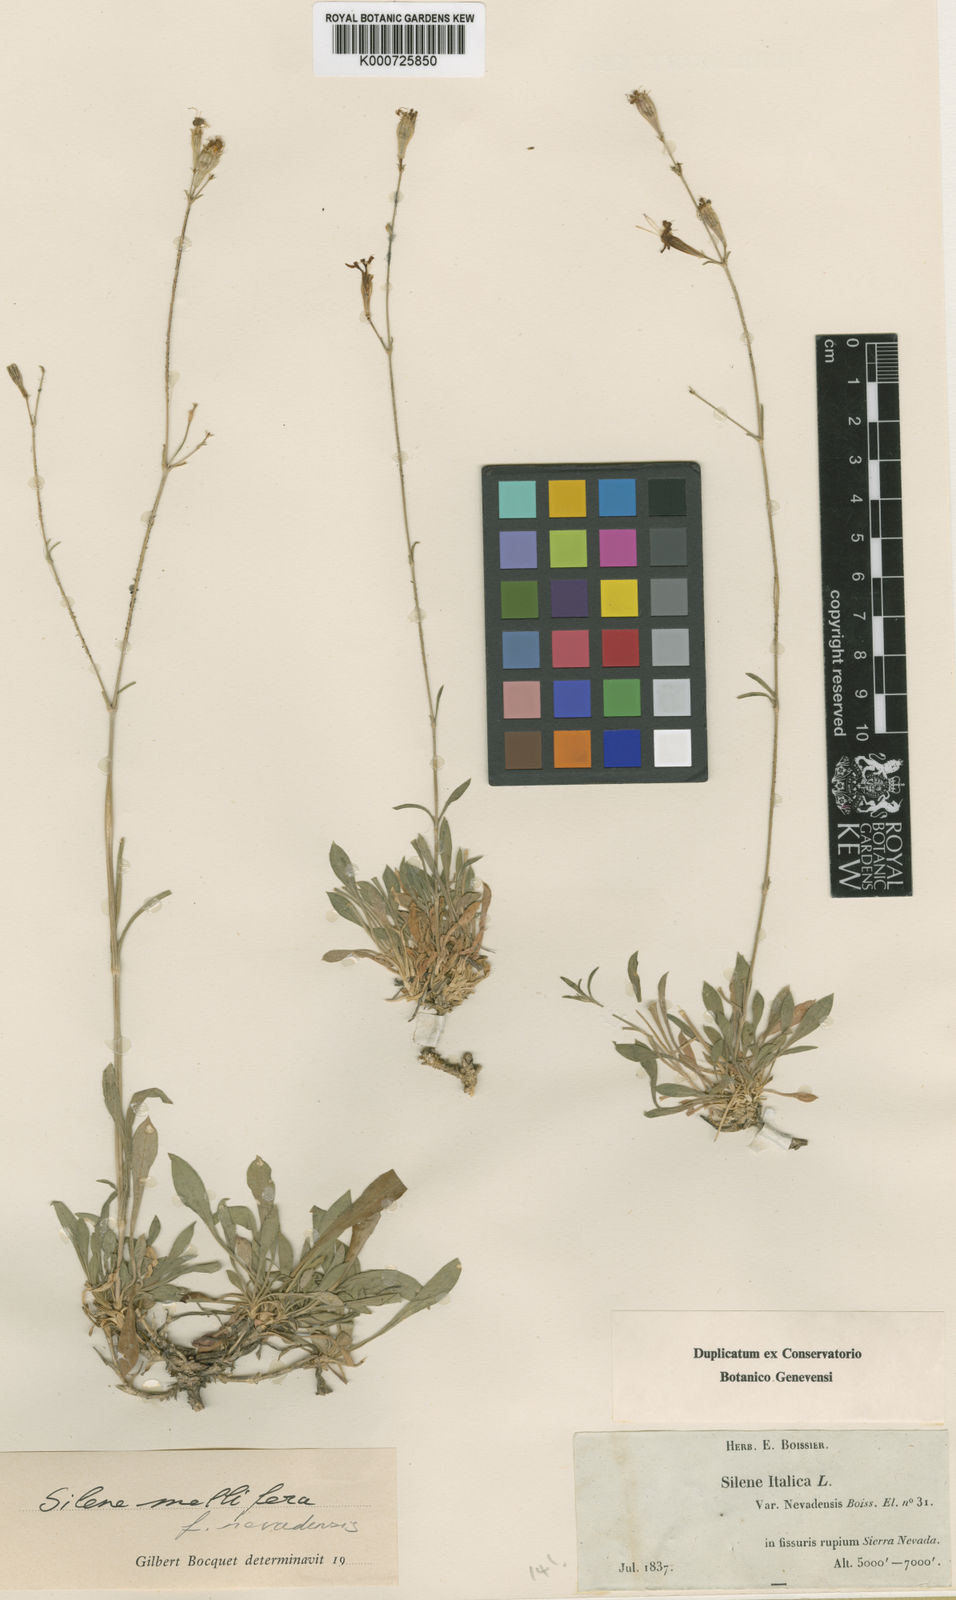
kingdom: Plantae
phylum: Tracheophyta
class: Magnoliopsida
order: Caryophyllales
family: Caryophyllaceae
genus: Silene
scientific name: Silene patula
